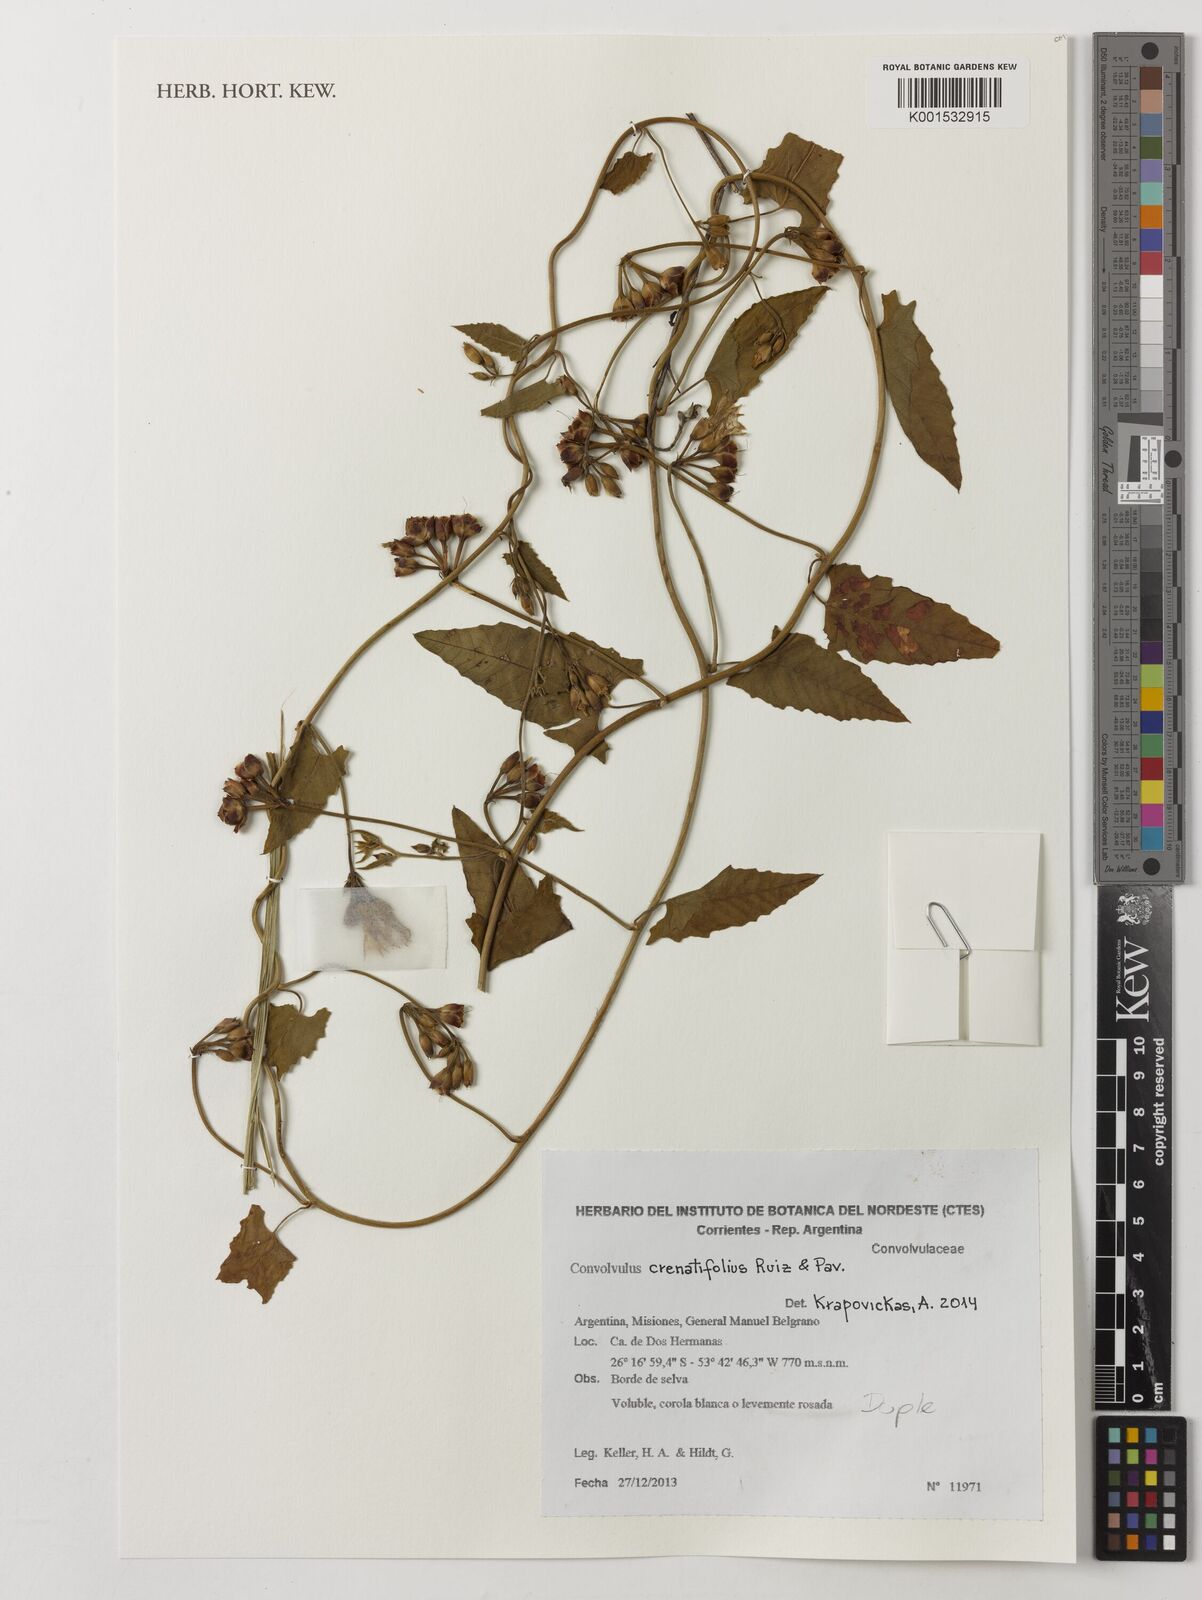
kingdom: Plantae
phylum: Tracheophyta
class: Magnoliopsida
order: Solanales
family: Convolvulaceae
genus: Convolvulus
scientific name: Convolvulus crenatifolius
